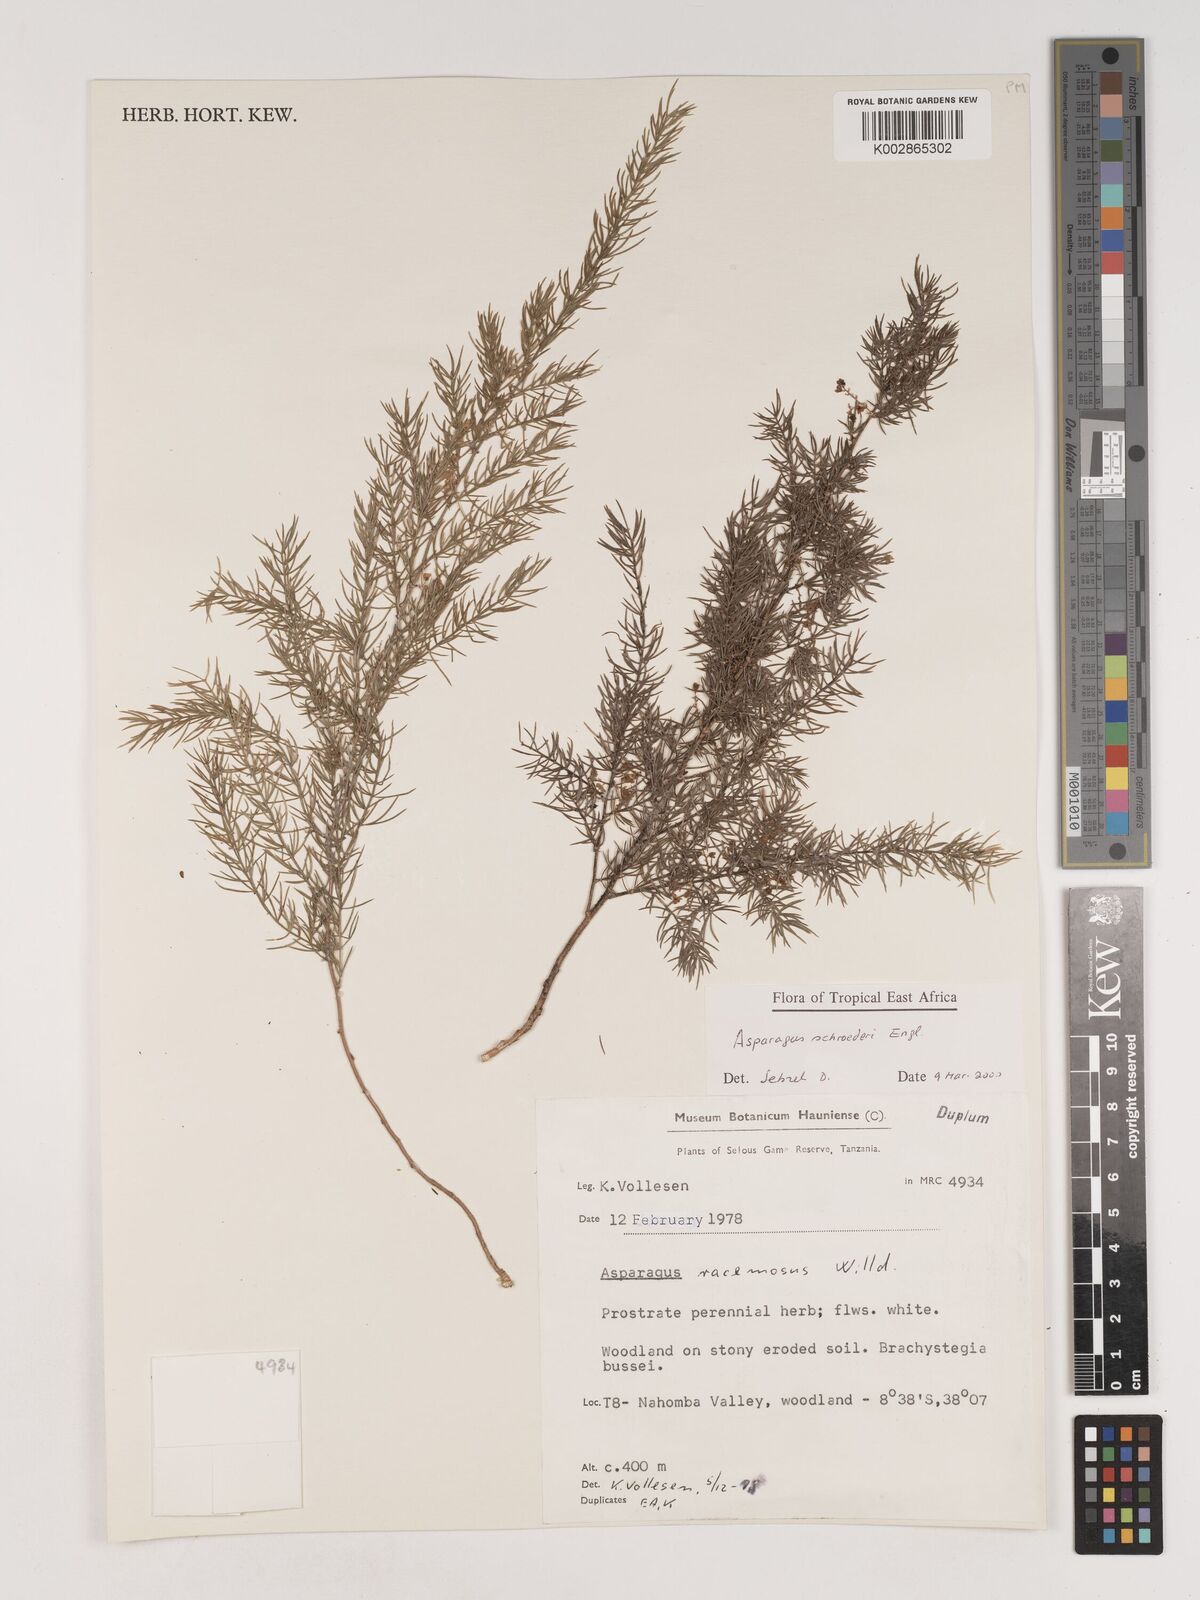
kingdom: Plantae
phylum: Tracheophyta
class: Liliopsida
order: Asparagales
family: Asparagaceae
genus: Asparagus
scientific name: Asparagus schroederi
